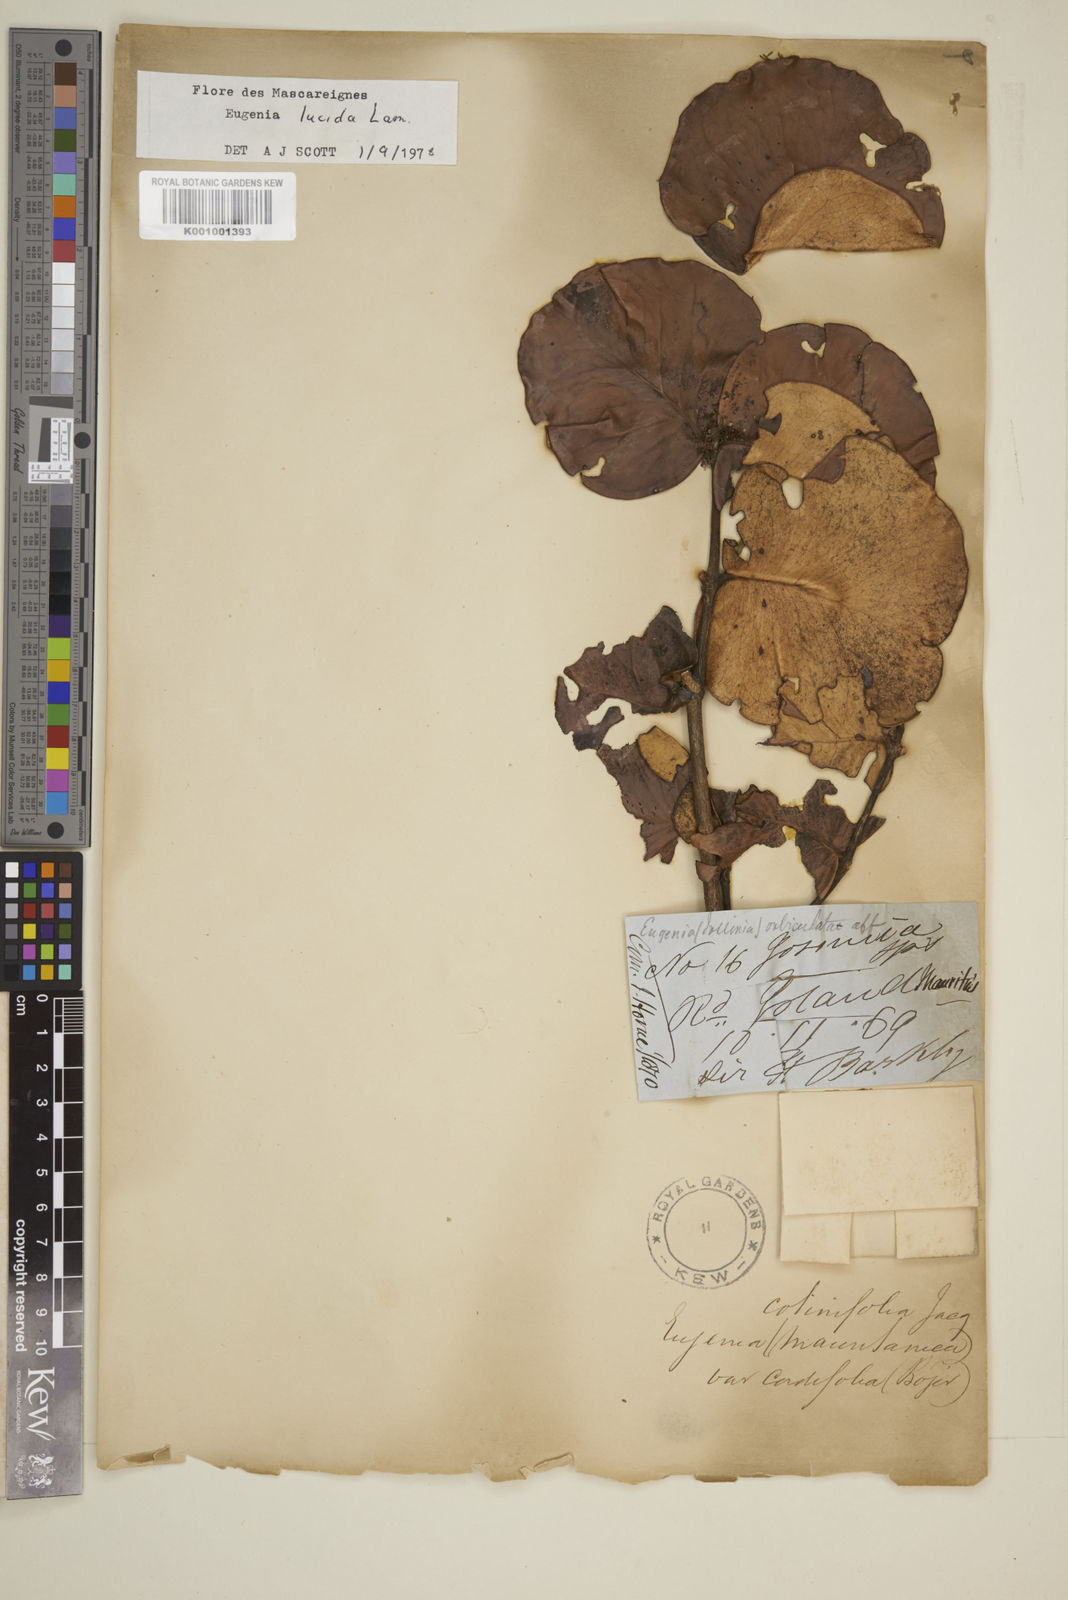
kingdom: Plantae
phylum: Tracheophyta
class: Magnoliopsida
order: Myrtales
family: Myrtaceae
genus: Eugenia
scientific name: Eugenia lucida
